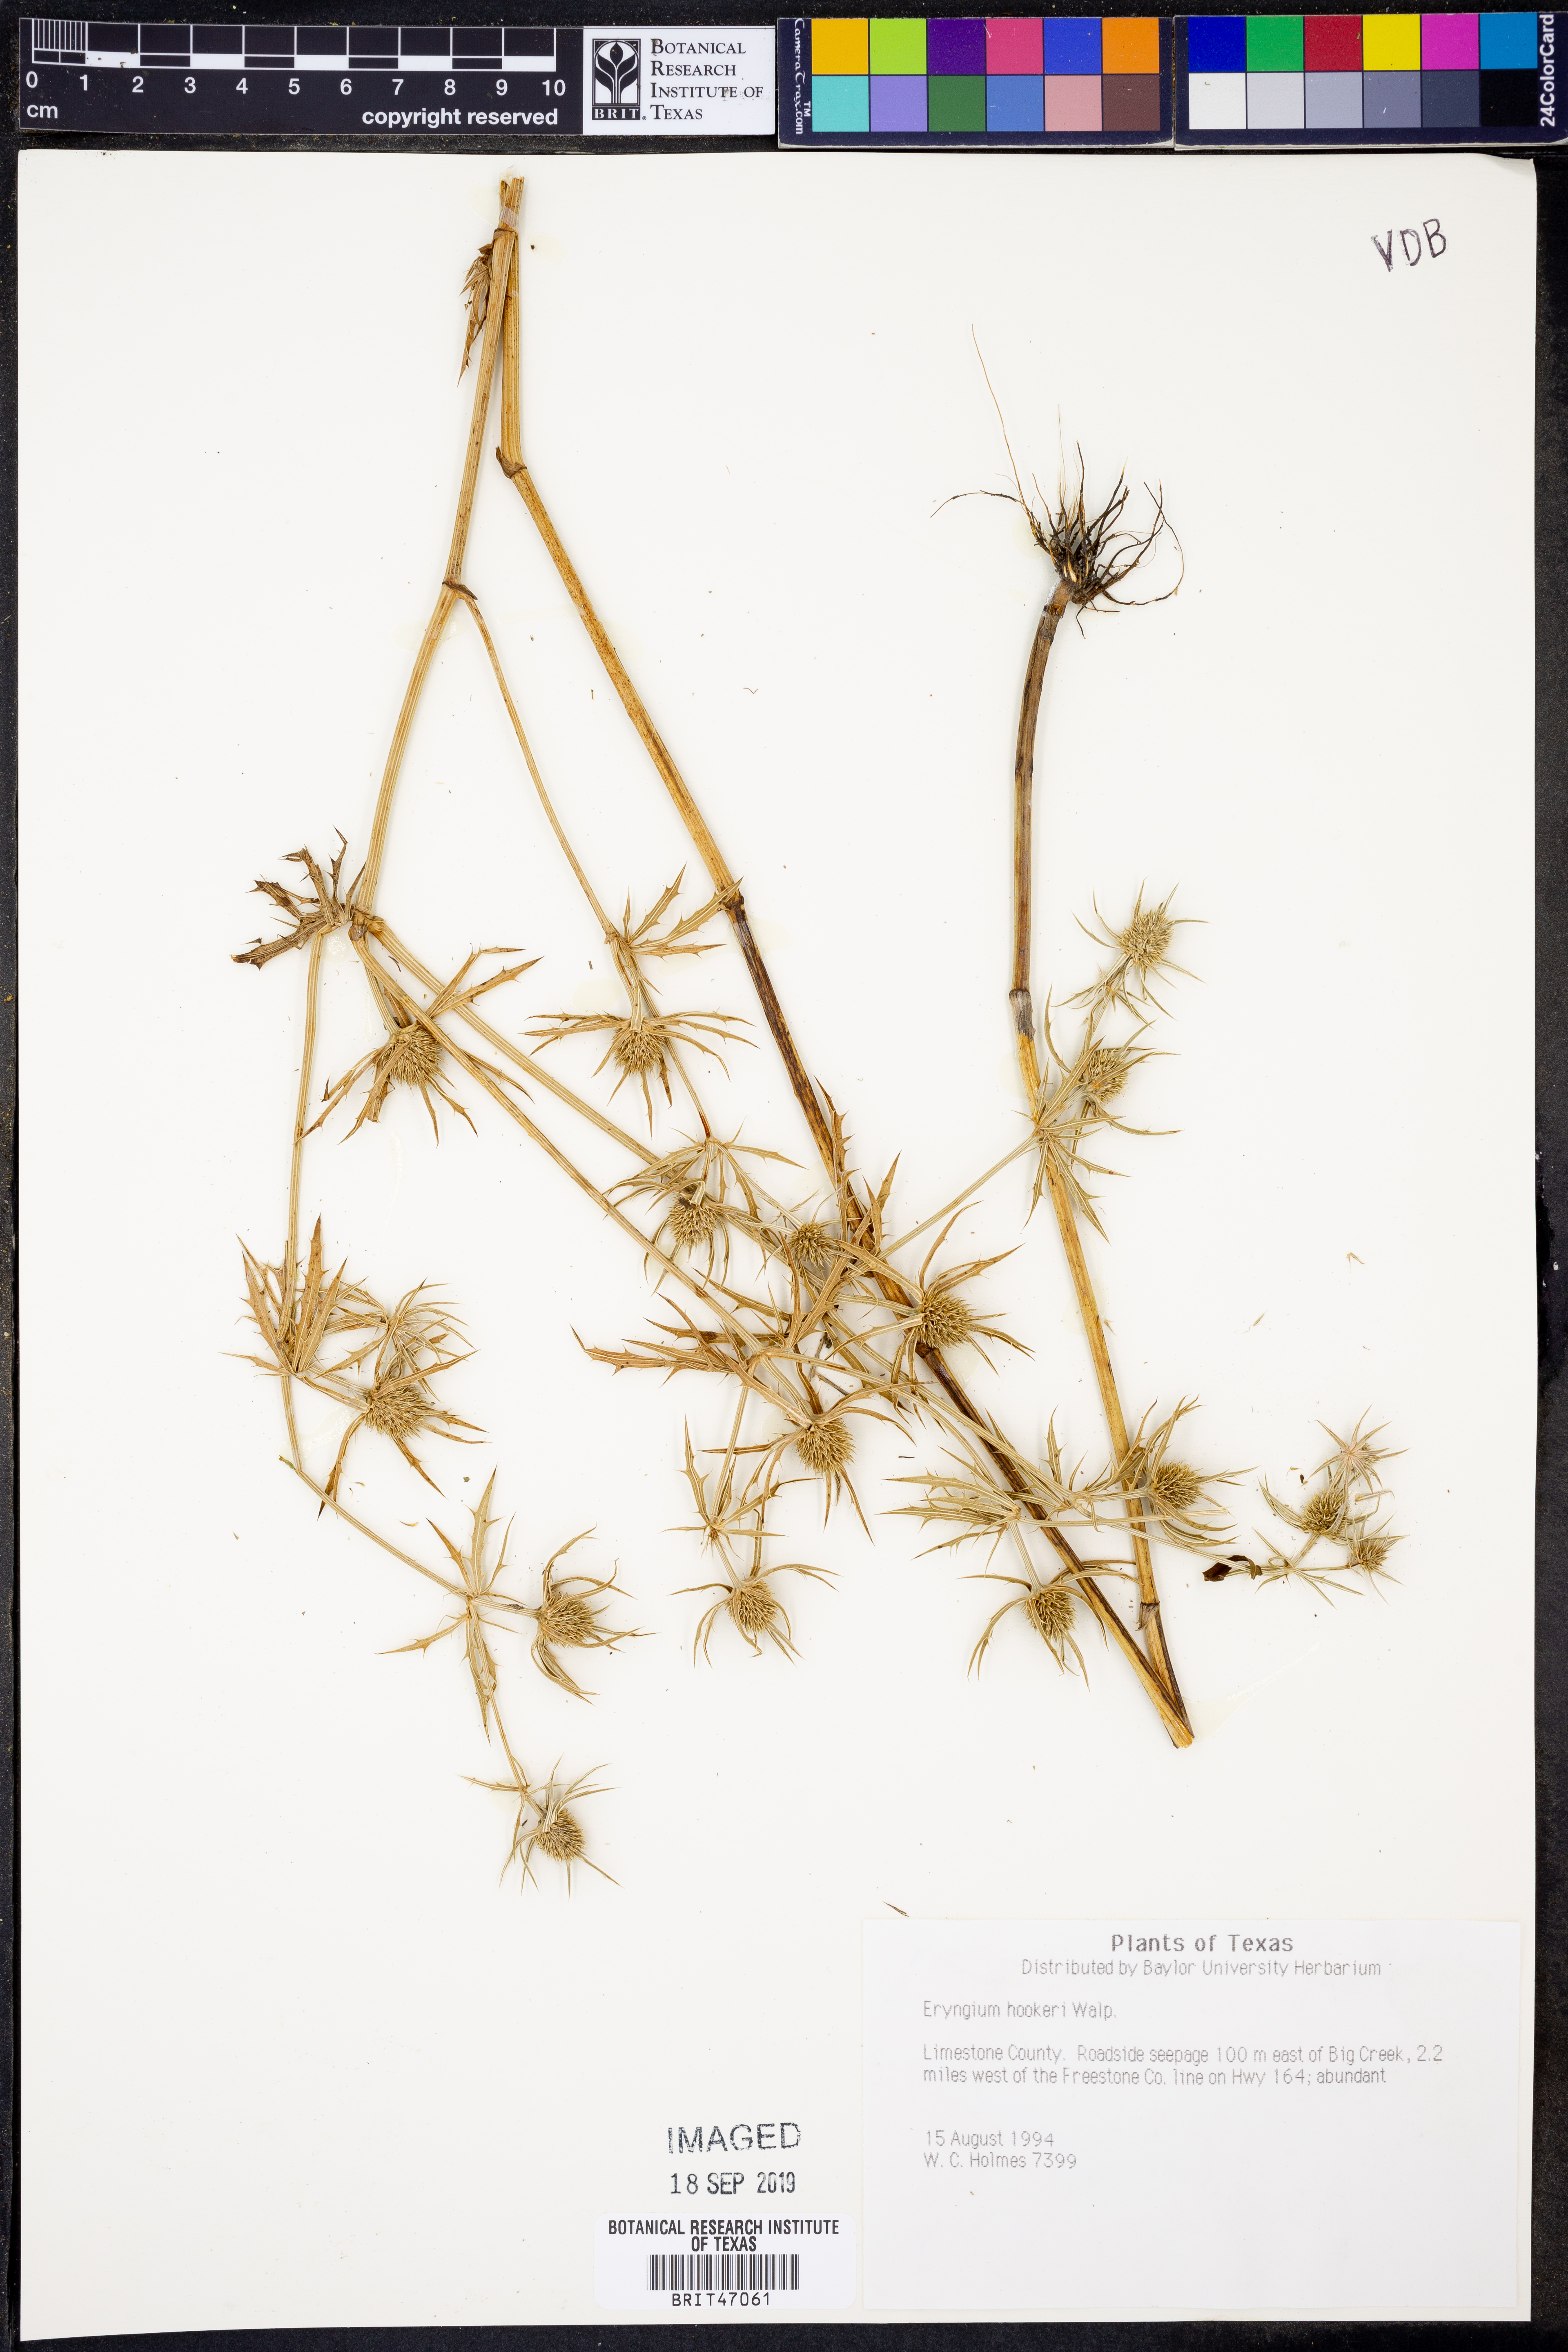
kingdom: Plantae
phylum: Tracheophyta
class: Magnoliopsida
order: Apiales
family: Apiaceae
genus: Eryngium
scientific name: Eryngium hookeri
